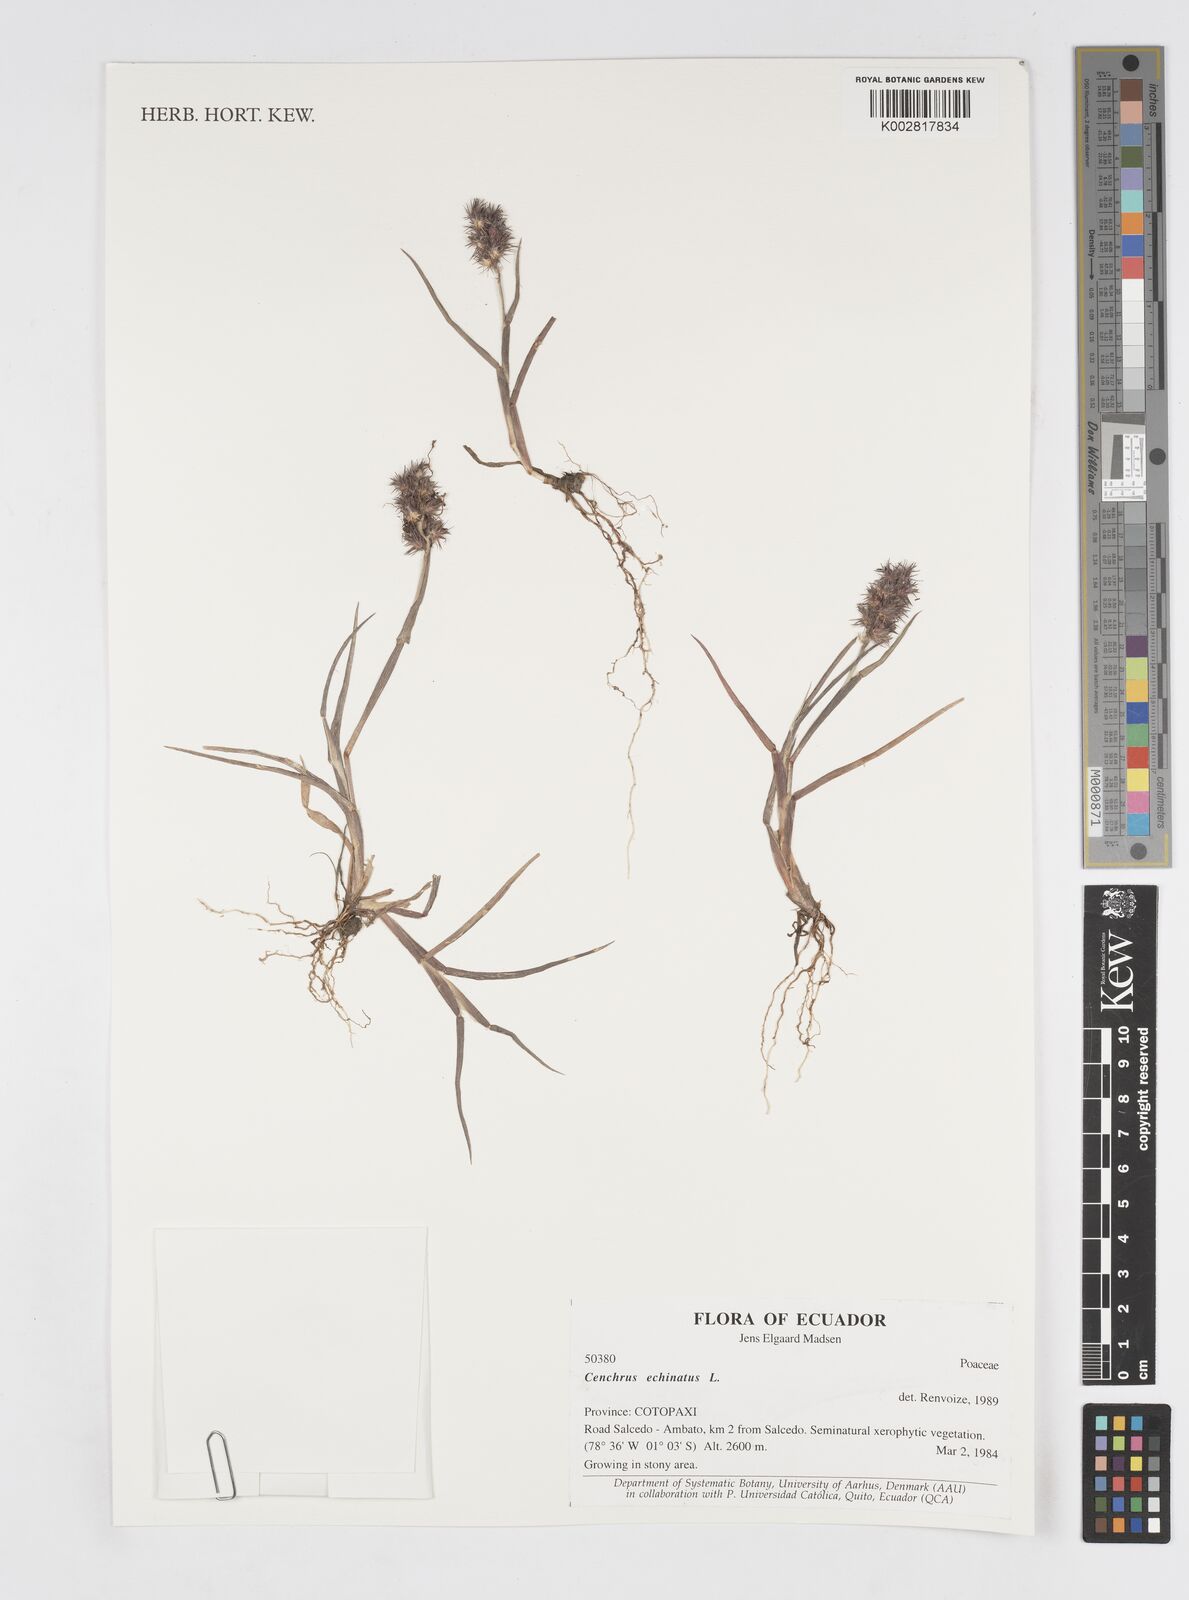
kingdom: Plantae
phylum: Tracheophyta
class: Liliopsida
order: Poales
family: Poaceae
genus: Cenchrus
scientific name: Cenchrus
